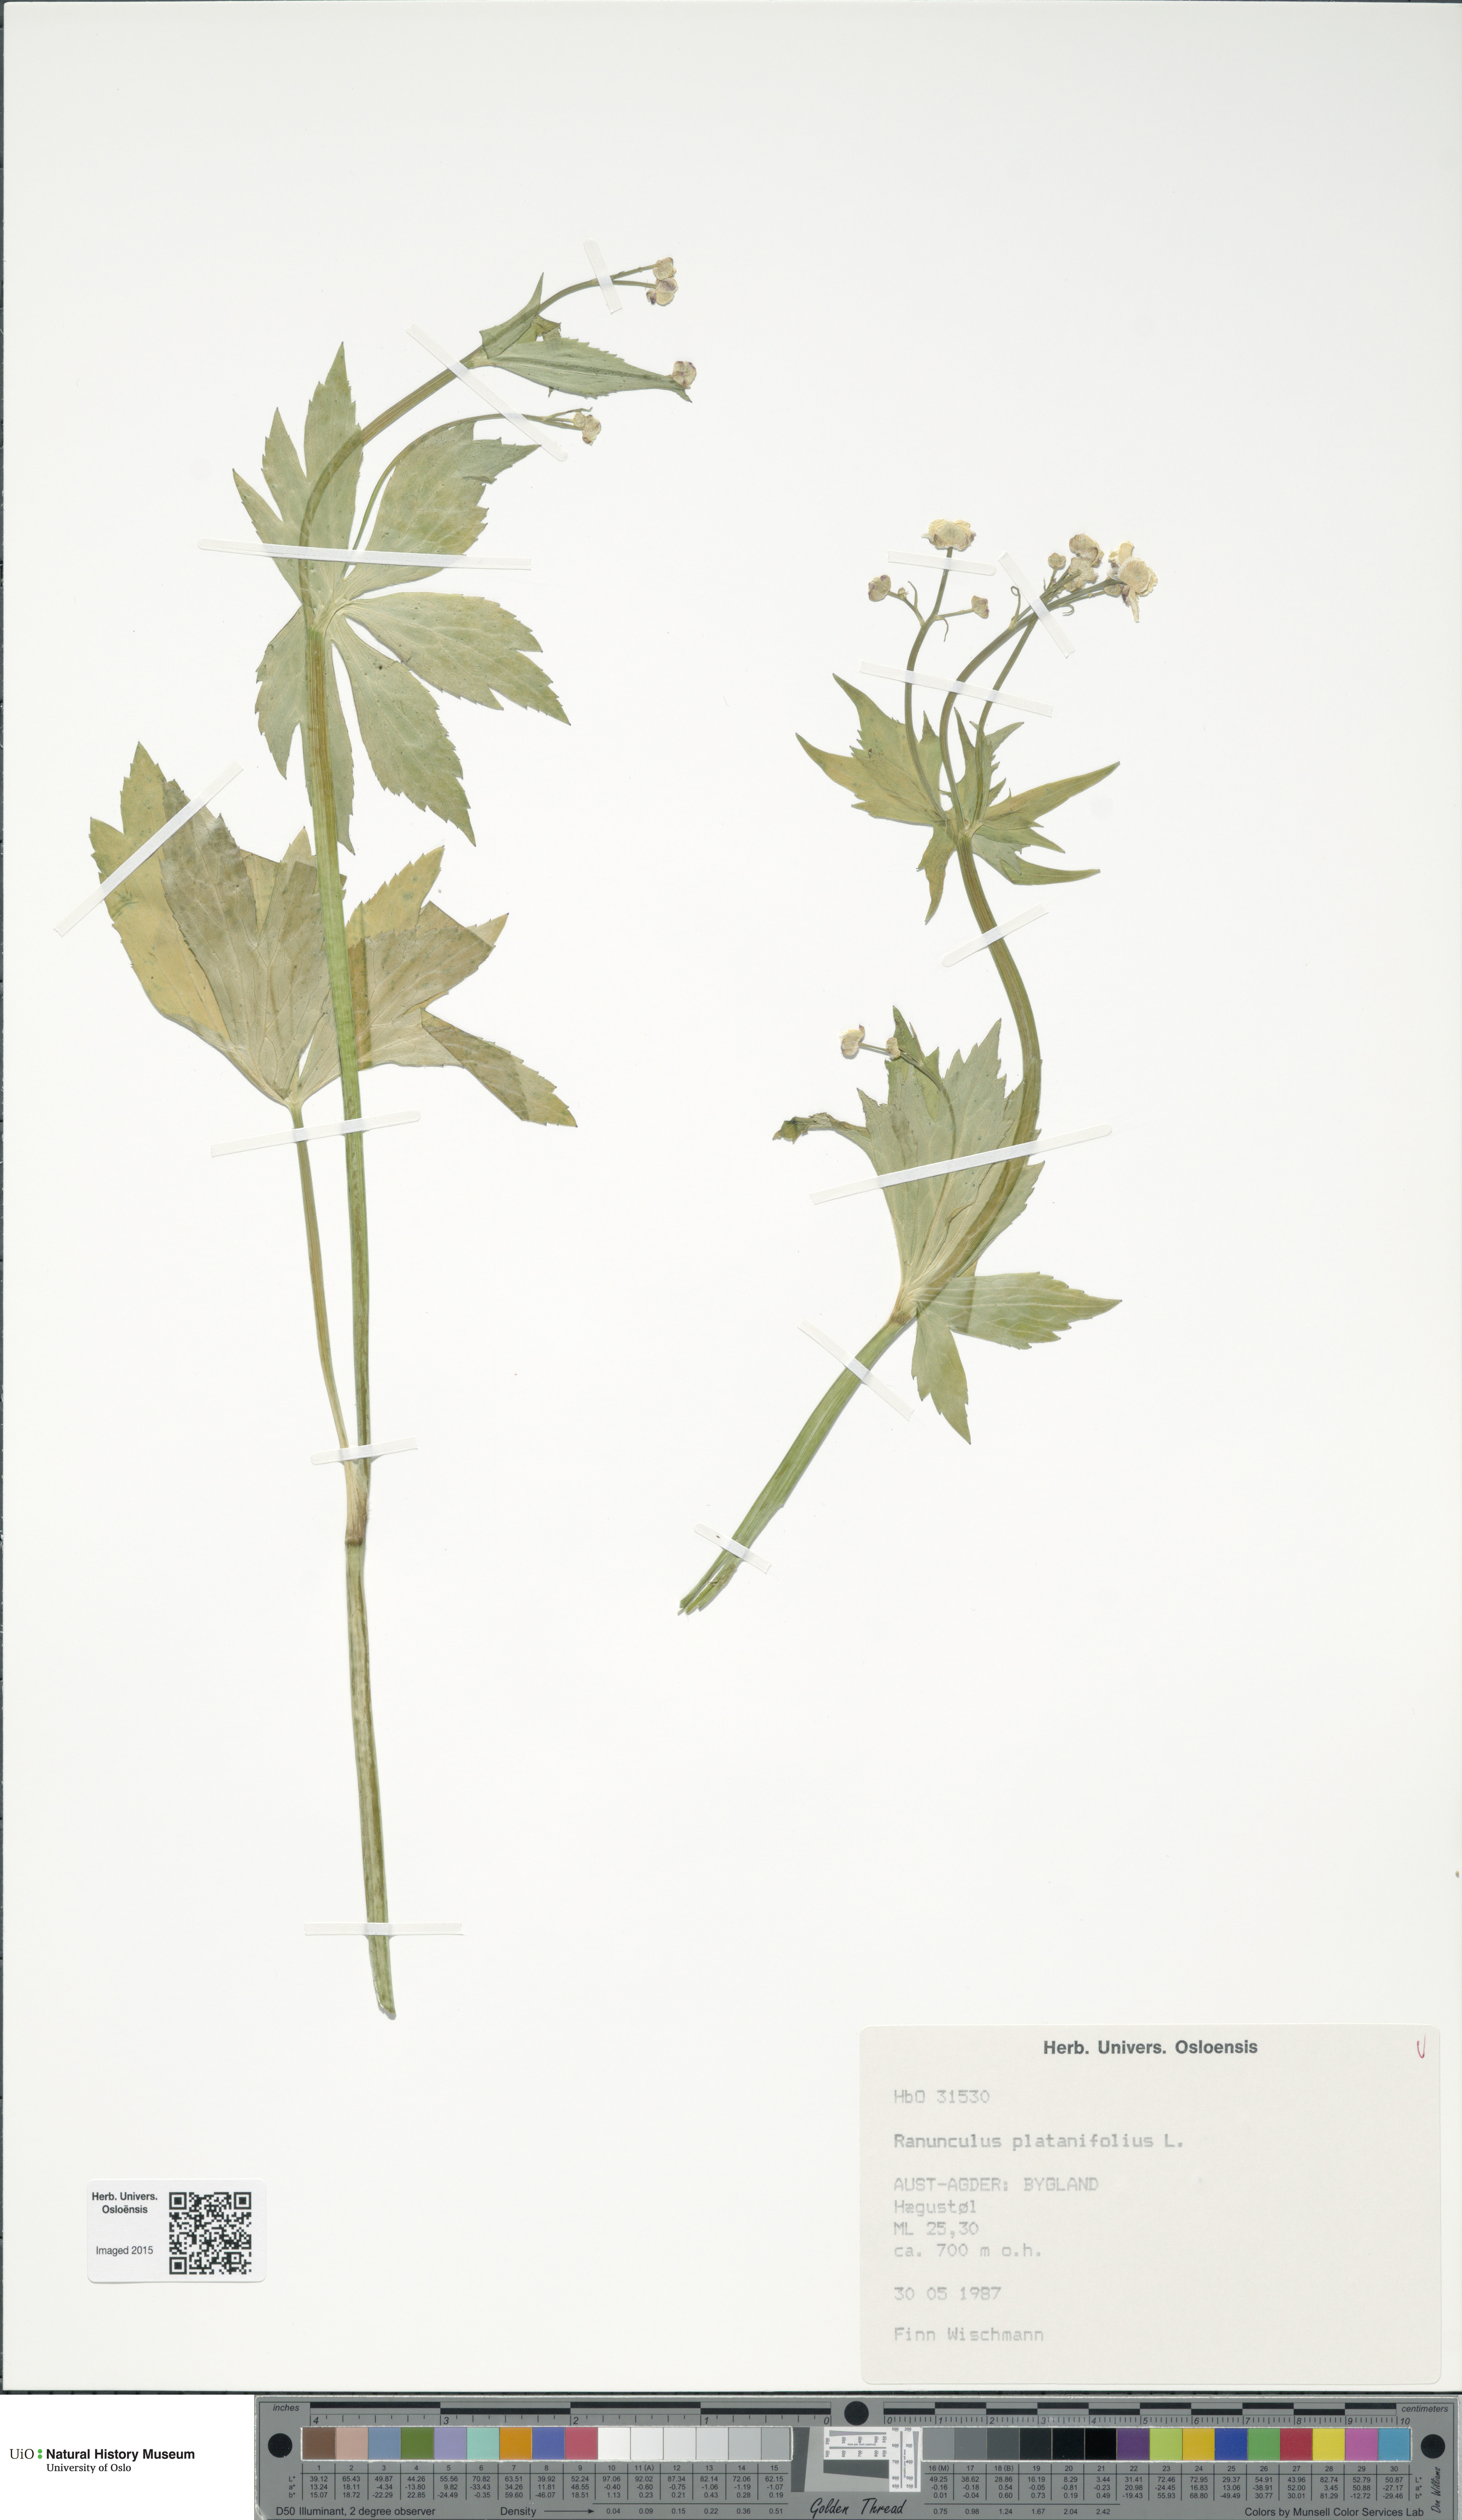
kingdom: Plantae
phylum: Tracheophyta
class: Magnoliopsida
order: Ranunculales
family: Ranunculaceae
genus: Ranunculus
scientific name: Ranunculus platanifolius
